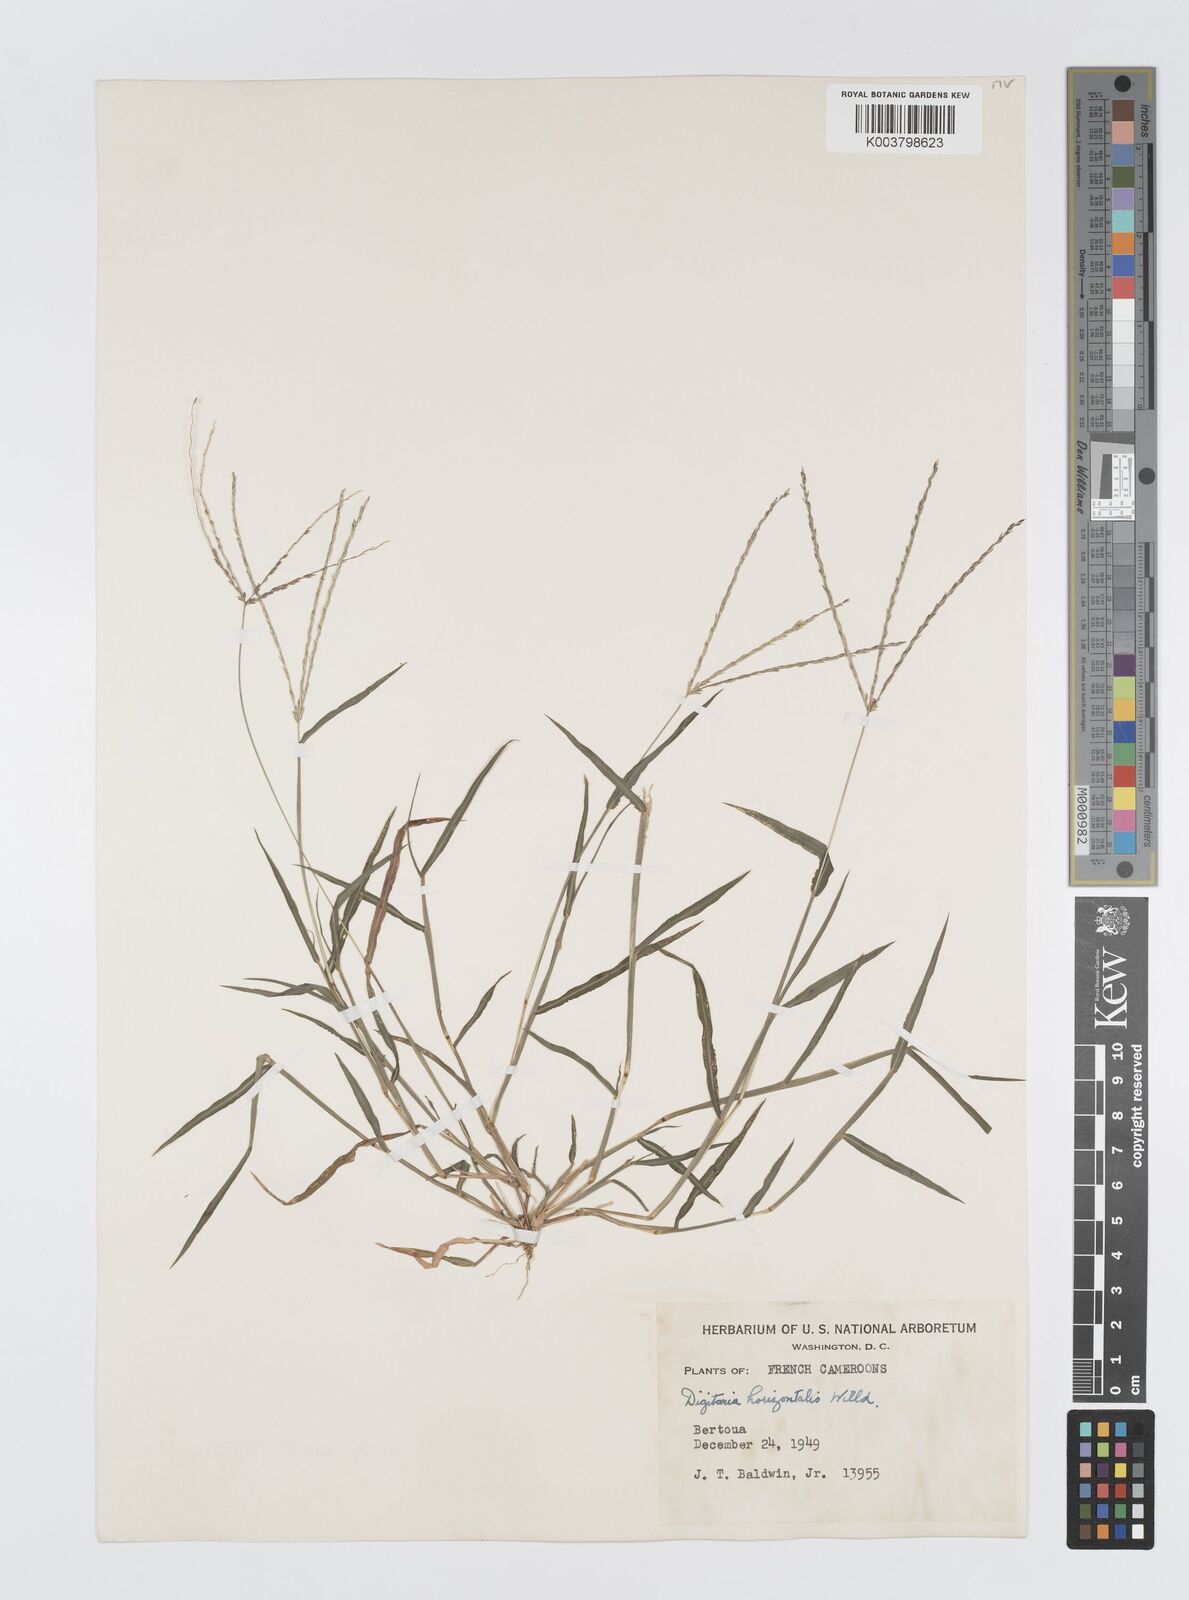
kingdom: Plantae
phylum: Tracheophyta
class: Liliopsida
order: Poales
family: Poaceae
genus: Digitaria
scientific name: Digitaria horizontalis
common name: Jamaican crabgrass
